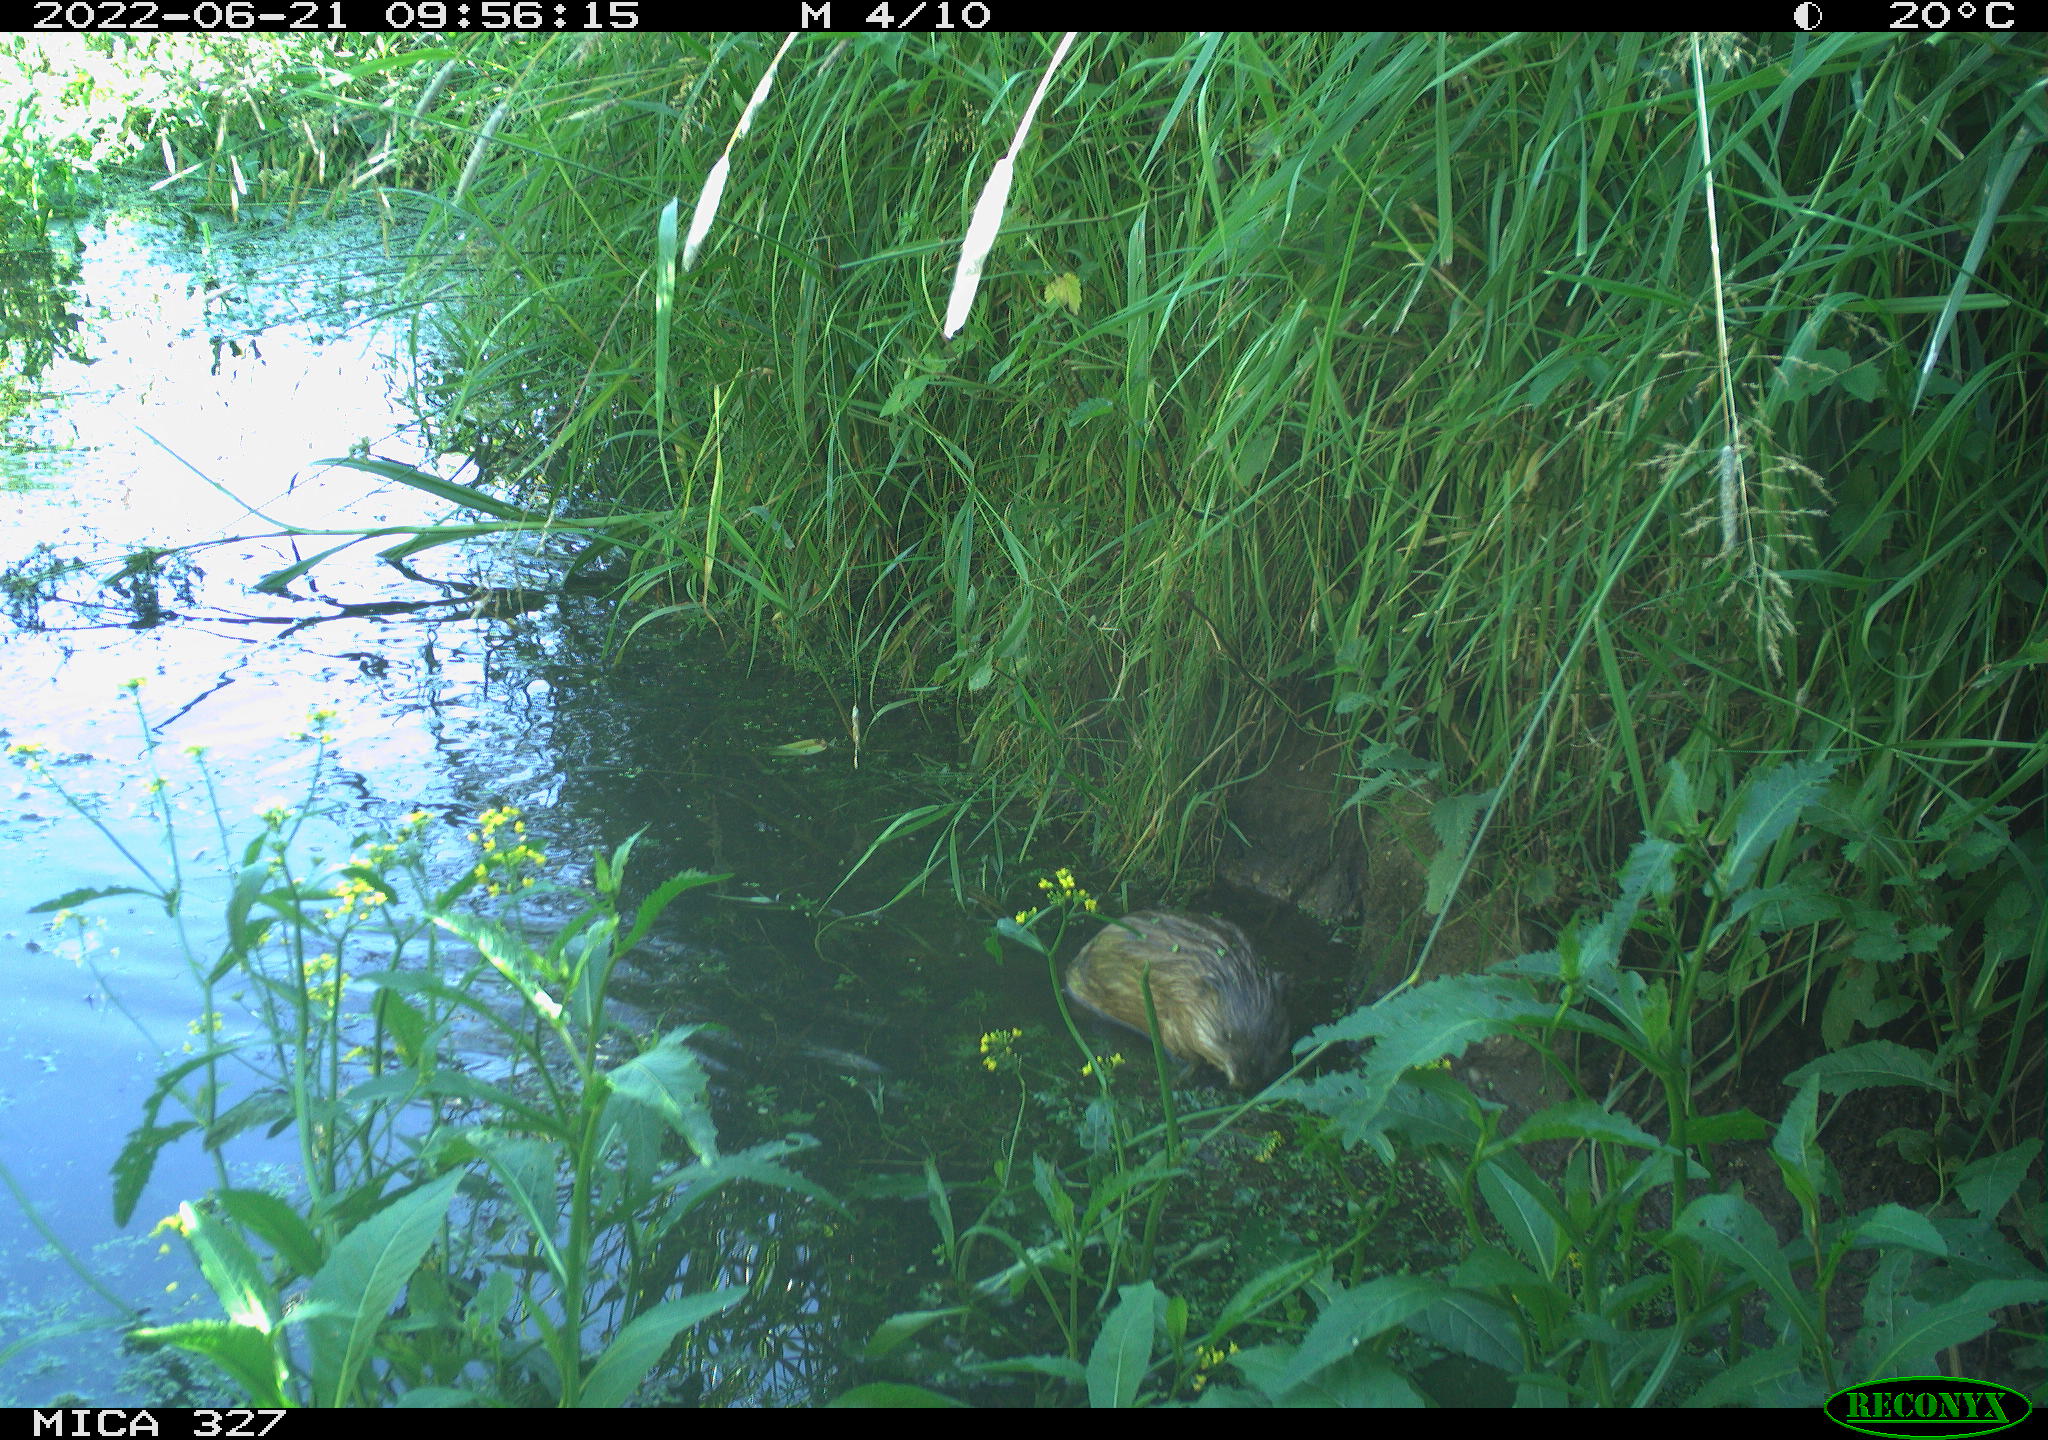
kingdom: Animalia
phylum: Chordata
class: Mammalia
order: Rodentia
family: Cricetidae
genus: Ondatra
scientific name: Ondatra zibethicus
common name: Muskrat
